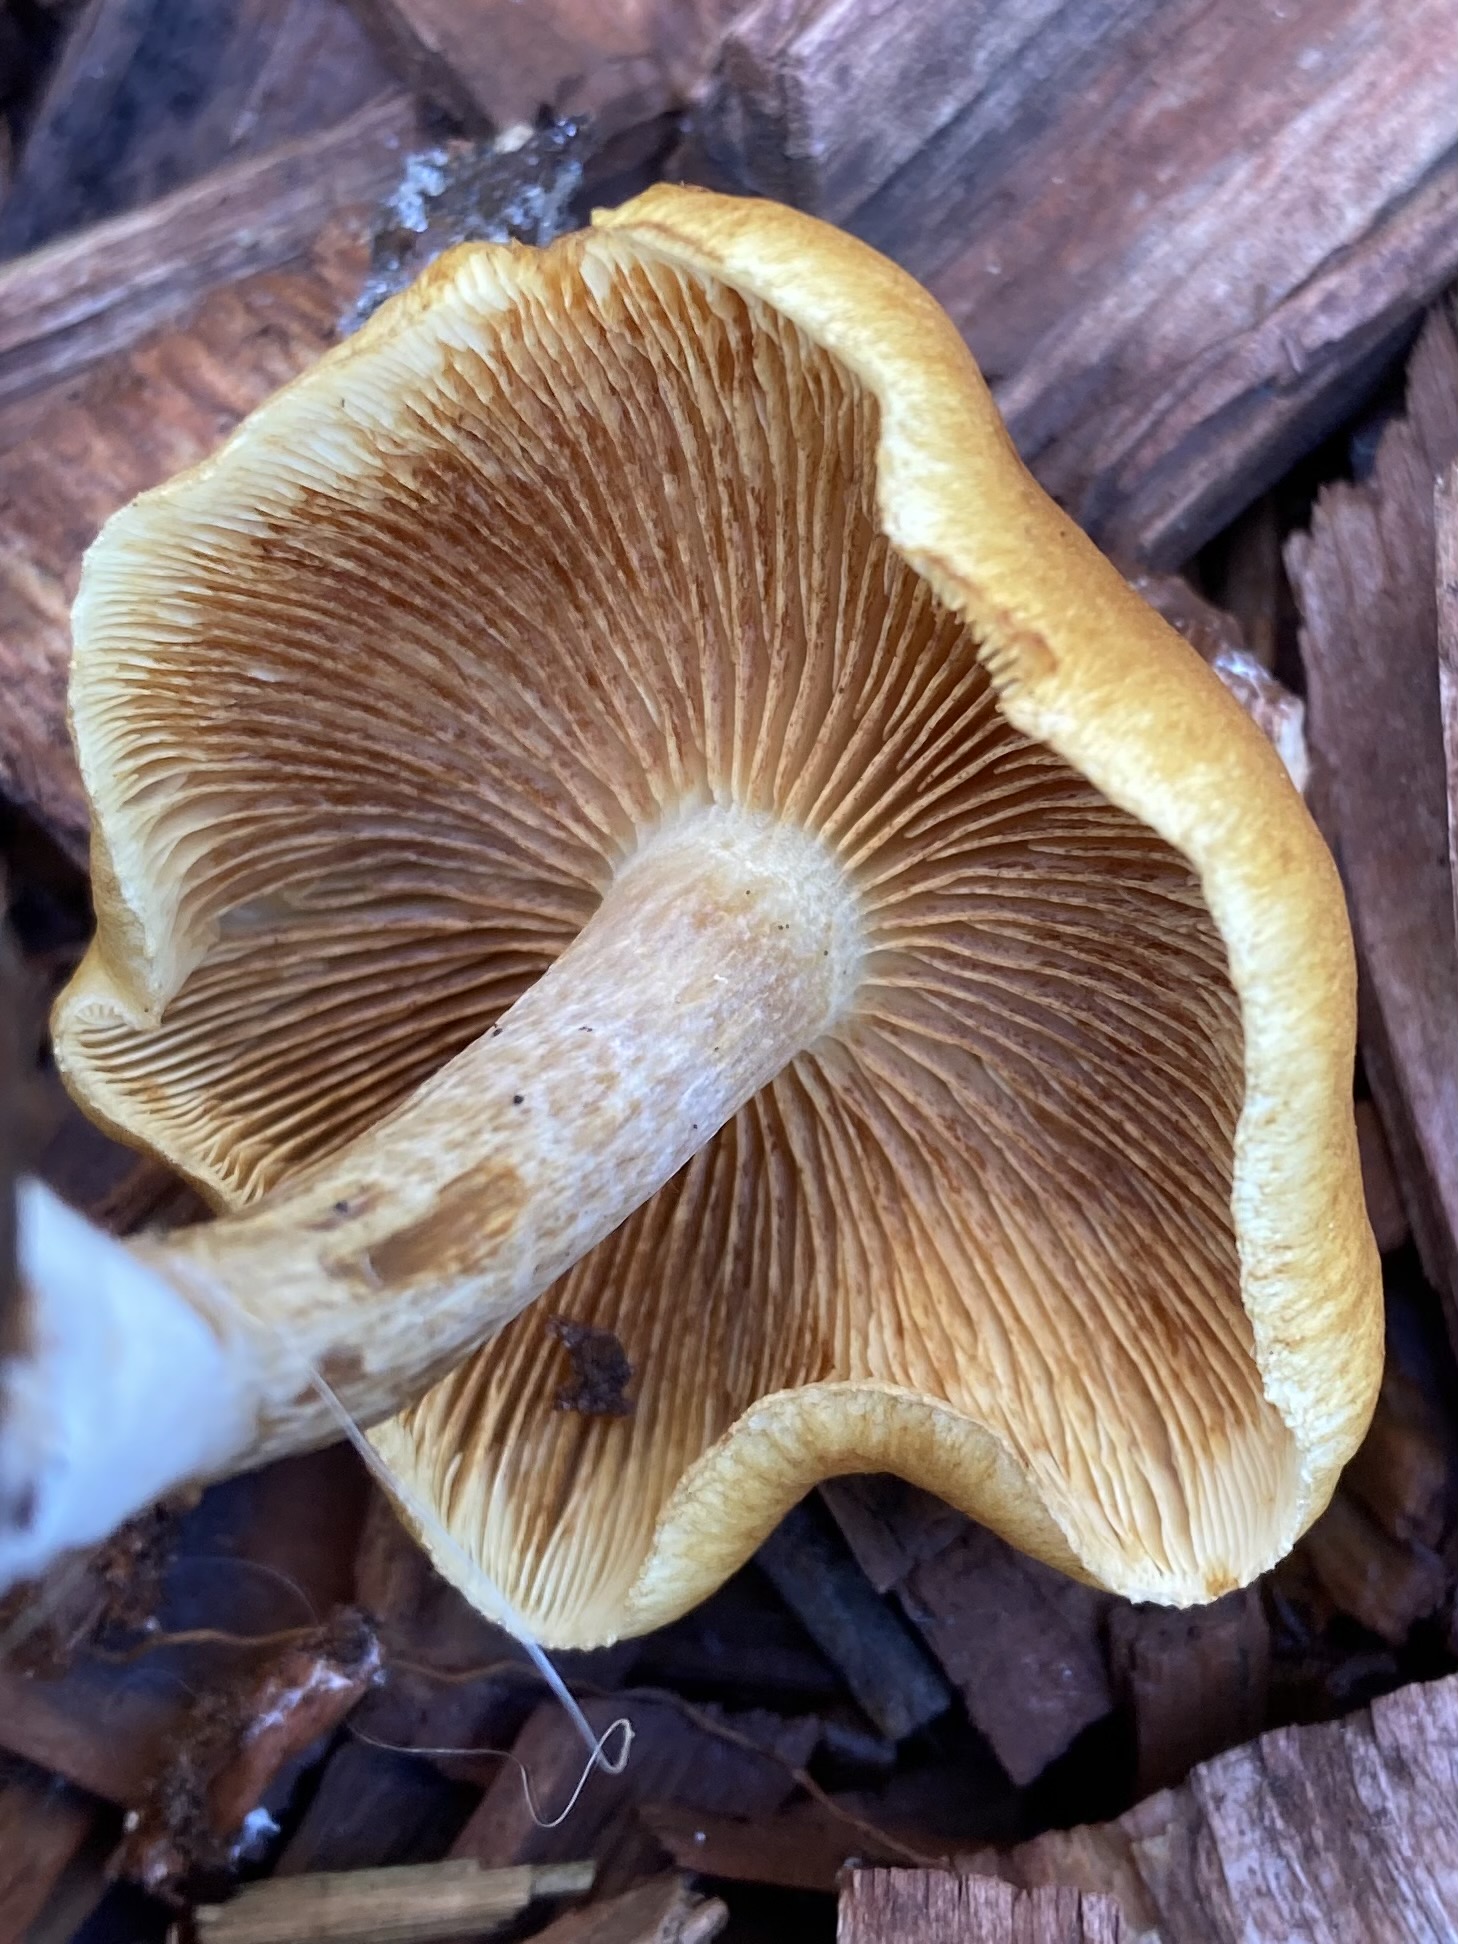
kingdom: Fungi
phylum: Basidiomycota
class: Agaricomycetes
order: Agaricales
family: Hymenogastraceae
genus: Gymnopilus
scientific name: Gymnopilus penetrans
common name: plettet flammehat
